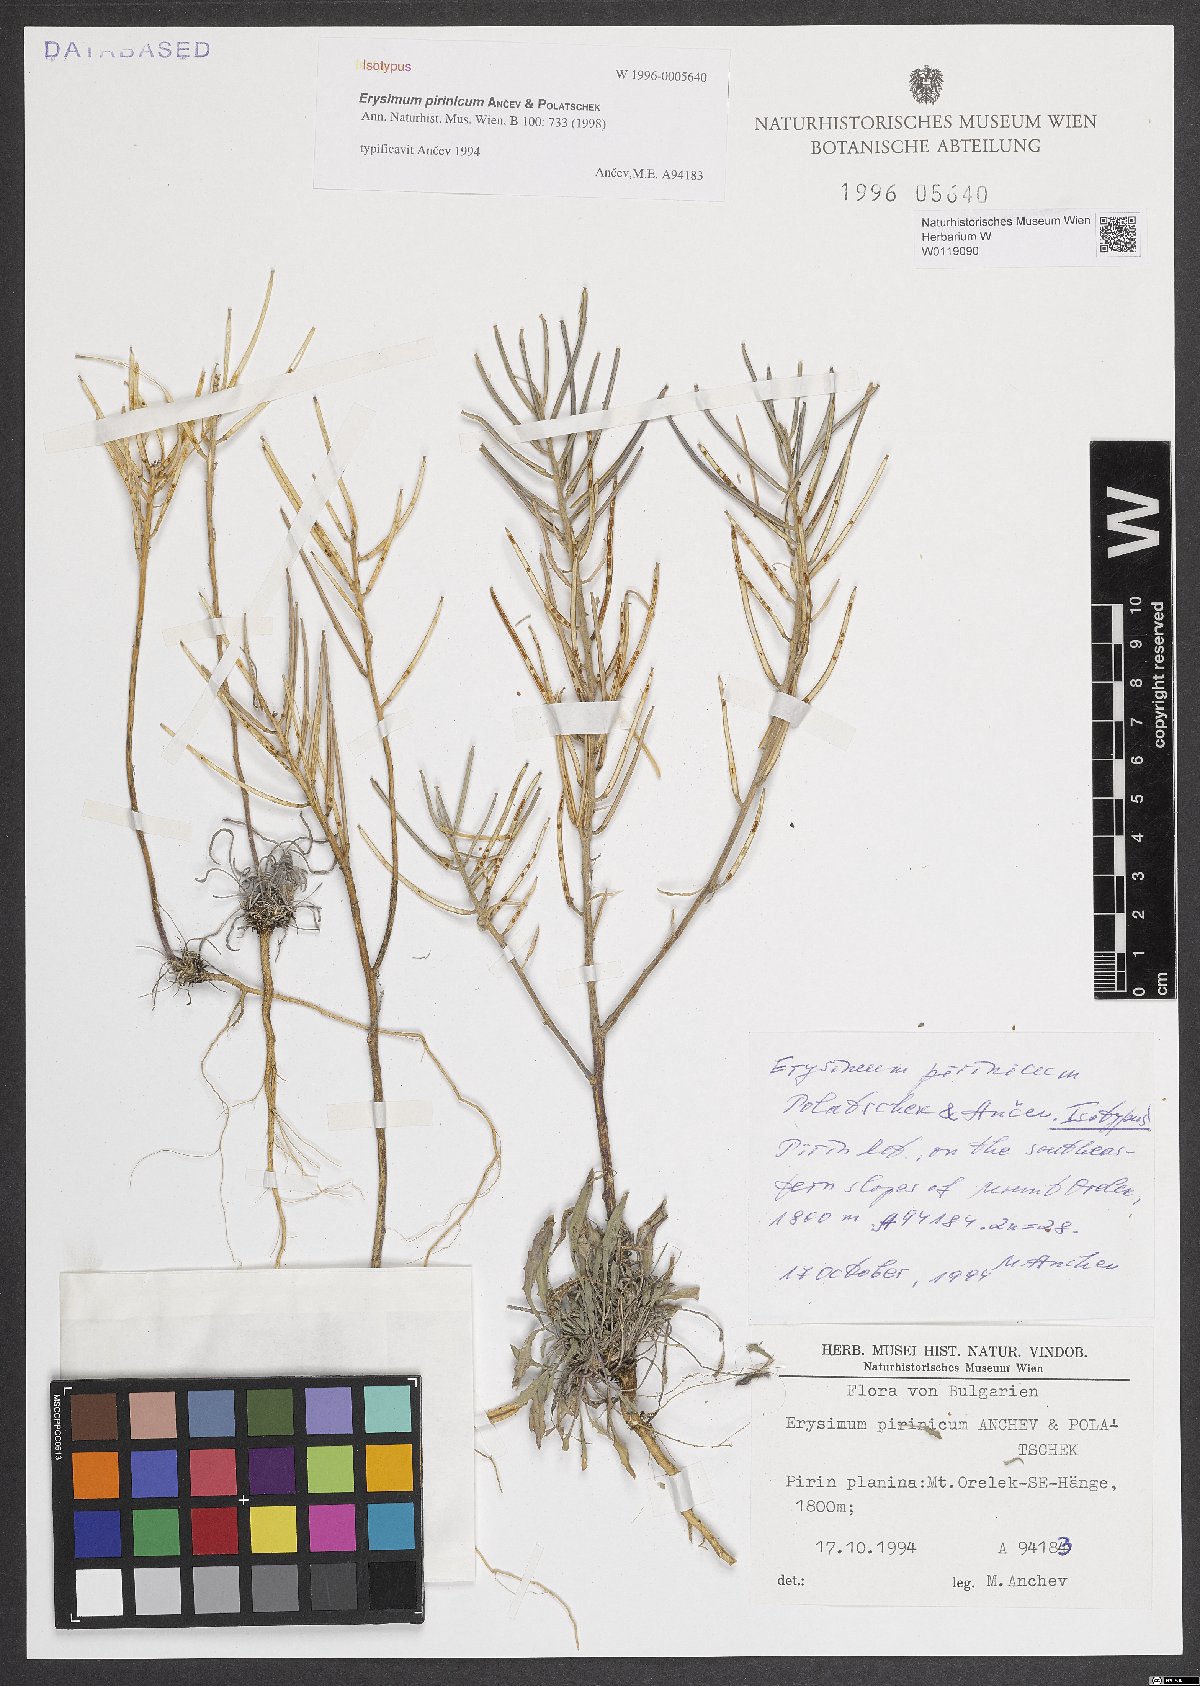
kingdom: Plantae
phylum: Tracheophyta
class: Magnoliopsida
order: Brassicales
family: Brassicaceae
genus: Erysimum
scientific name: Erysimum pirinicum
